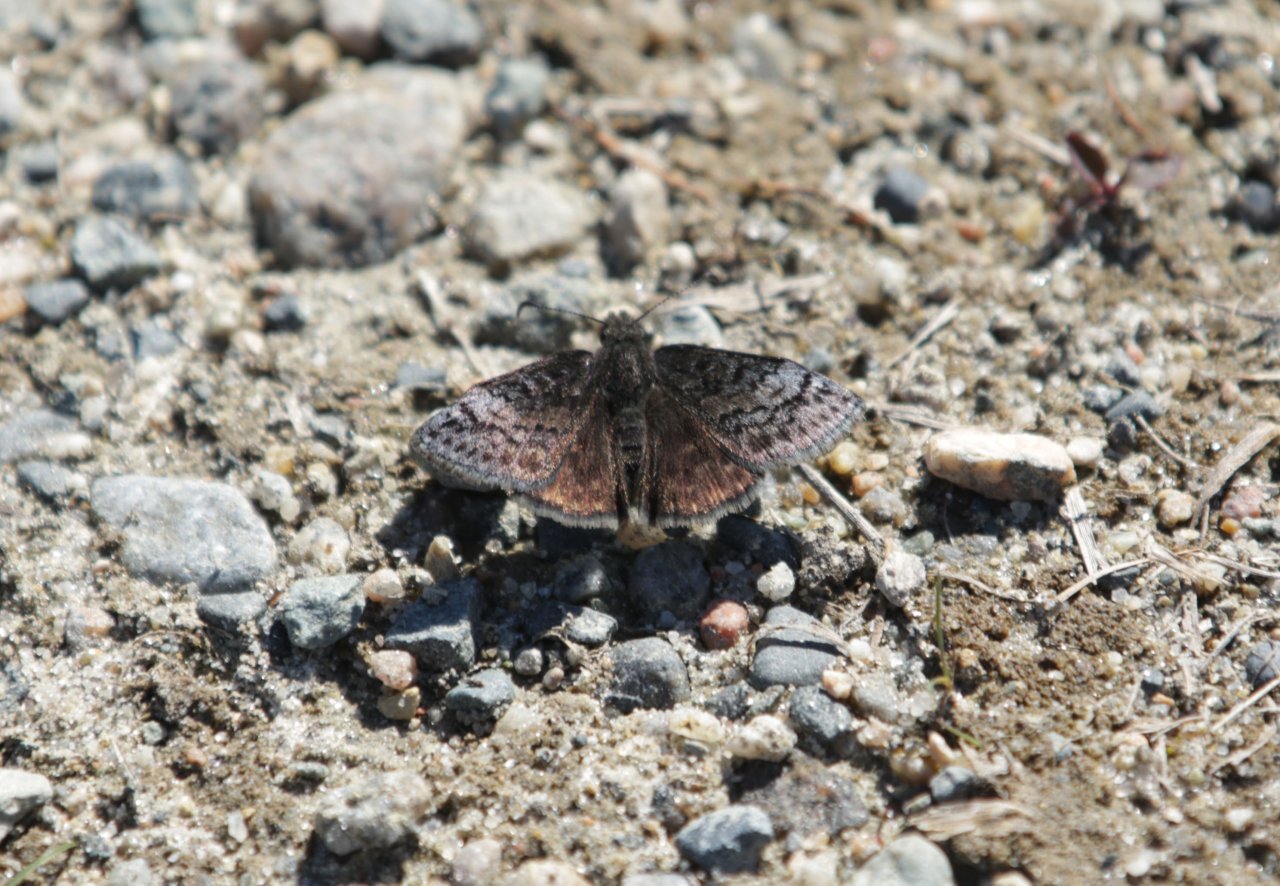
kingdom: Animalia
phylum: Arthropoda
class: Insecta
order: Lepidoptera
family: Hesperiidae
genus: Erynnis
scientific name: Erynnis icelus
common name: Dreamy Duskywing
